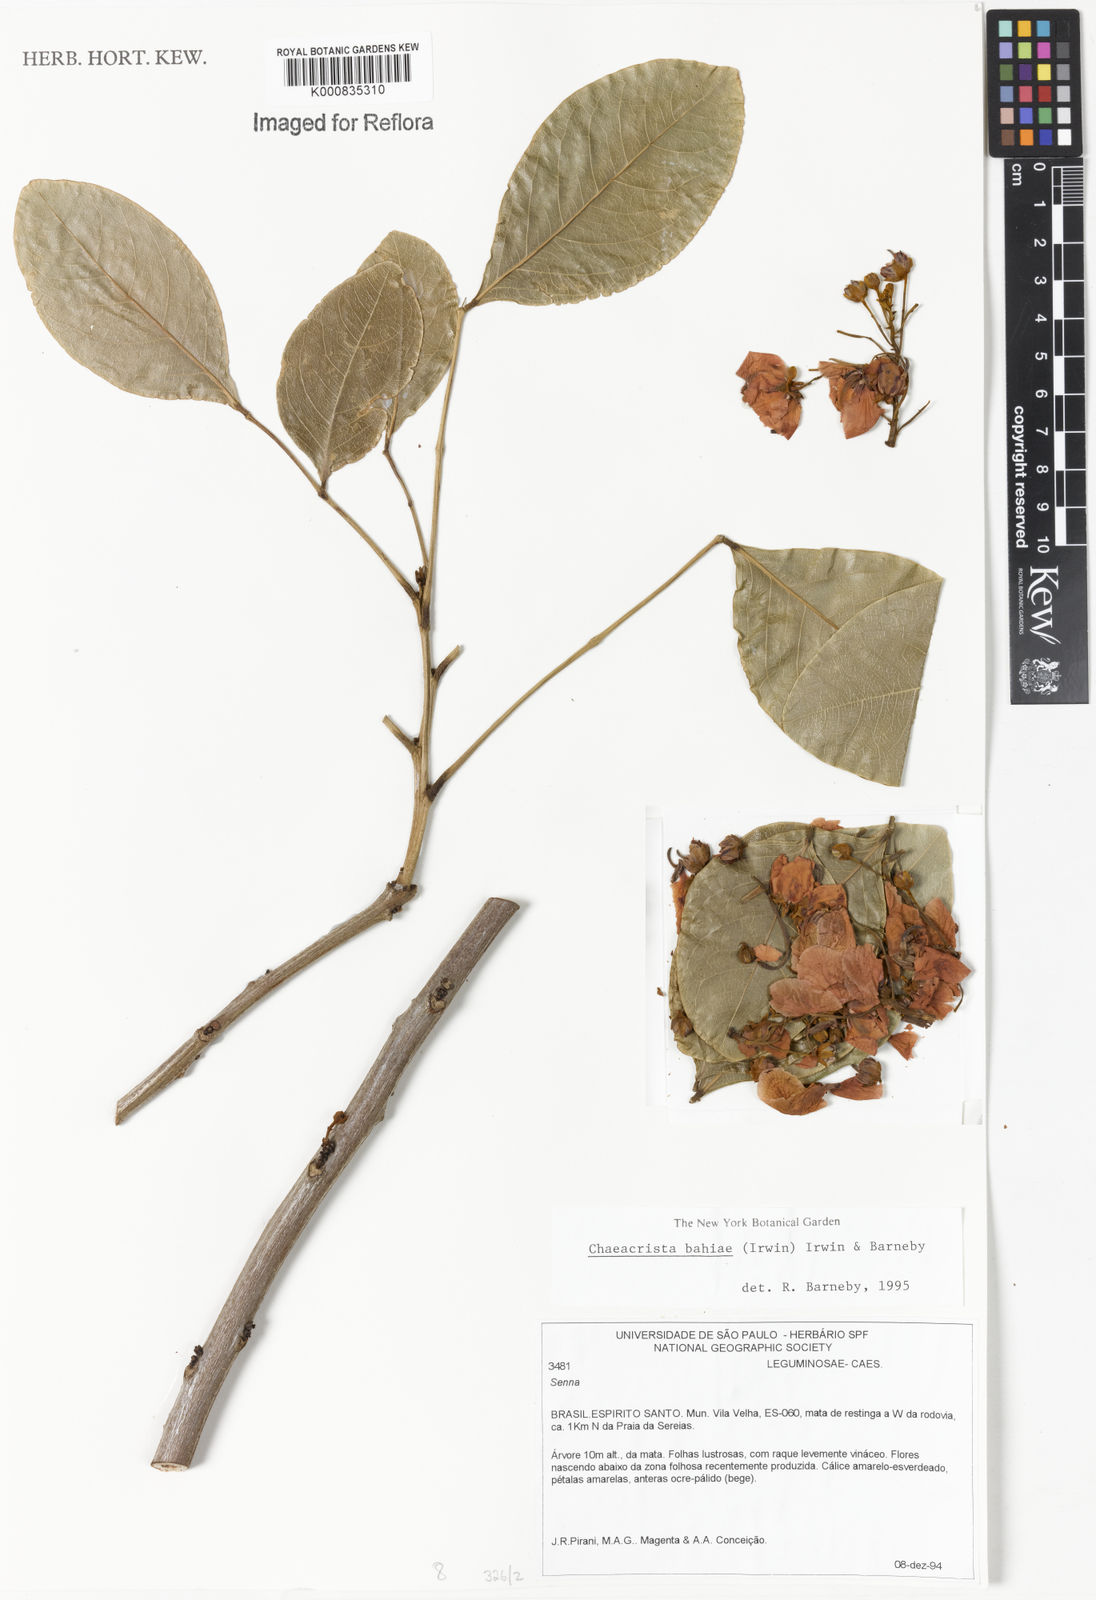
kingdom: Plantae
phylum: Tracheophyta
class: Magnoliopsida
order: Fabales
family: Fabaceae
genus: Chamaecrista
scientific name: Chamaecrista bahiae
